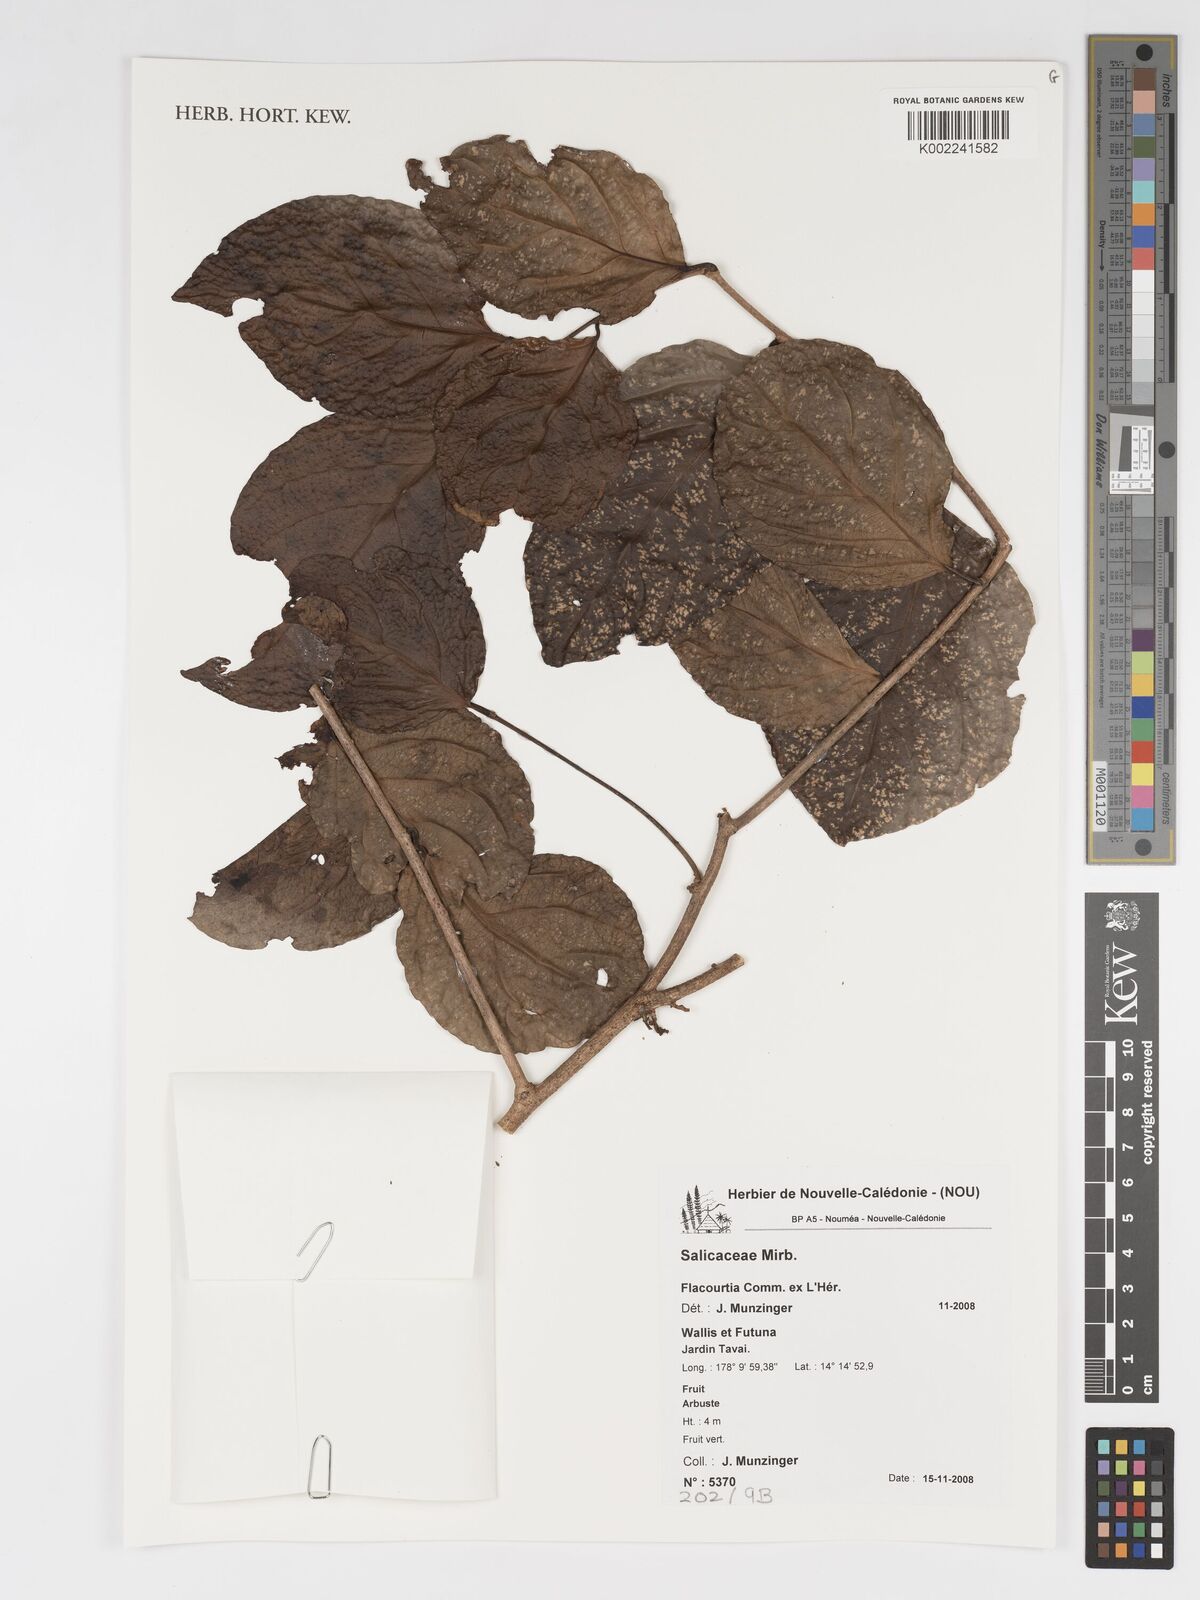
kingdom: Plantae
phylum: Tracheophyta
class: Magnoliopsida
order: Malpighiales
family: Salicaceae
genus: Flacourtia
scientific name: Flacourtia
